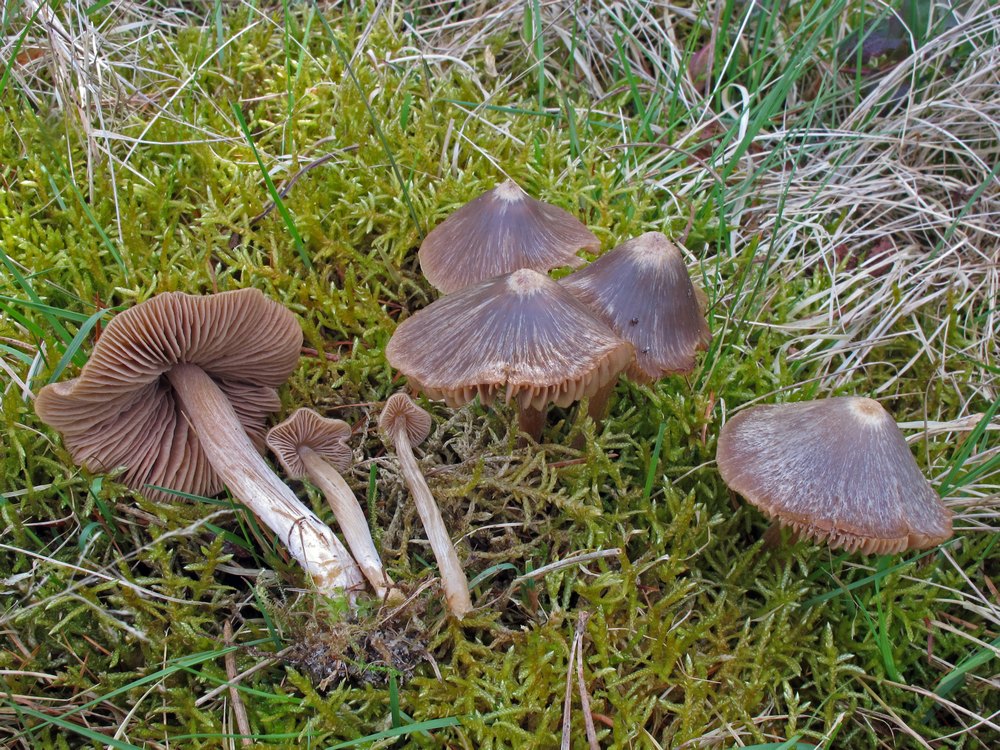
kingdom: Fungi
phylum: Basidiomycota
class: Agaricomycetes
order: Agaricales
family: Entolomataceae
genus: Entoloma
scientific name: Entoloma pallescens
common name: tidlig rødblad
